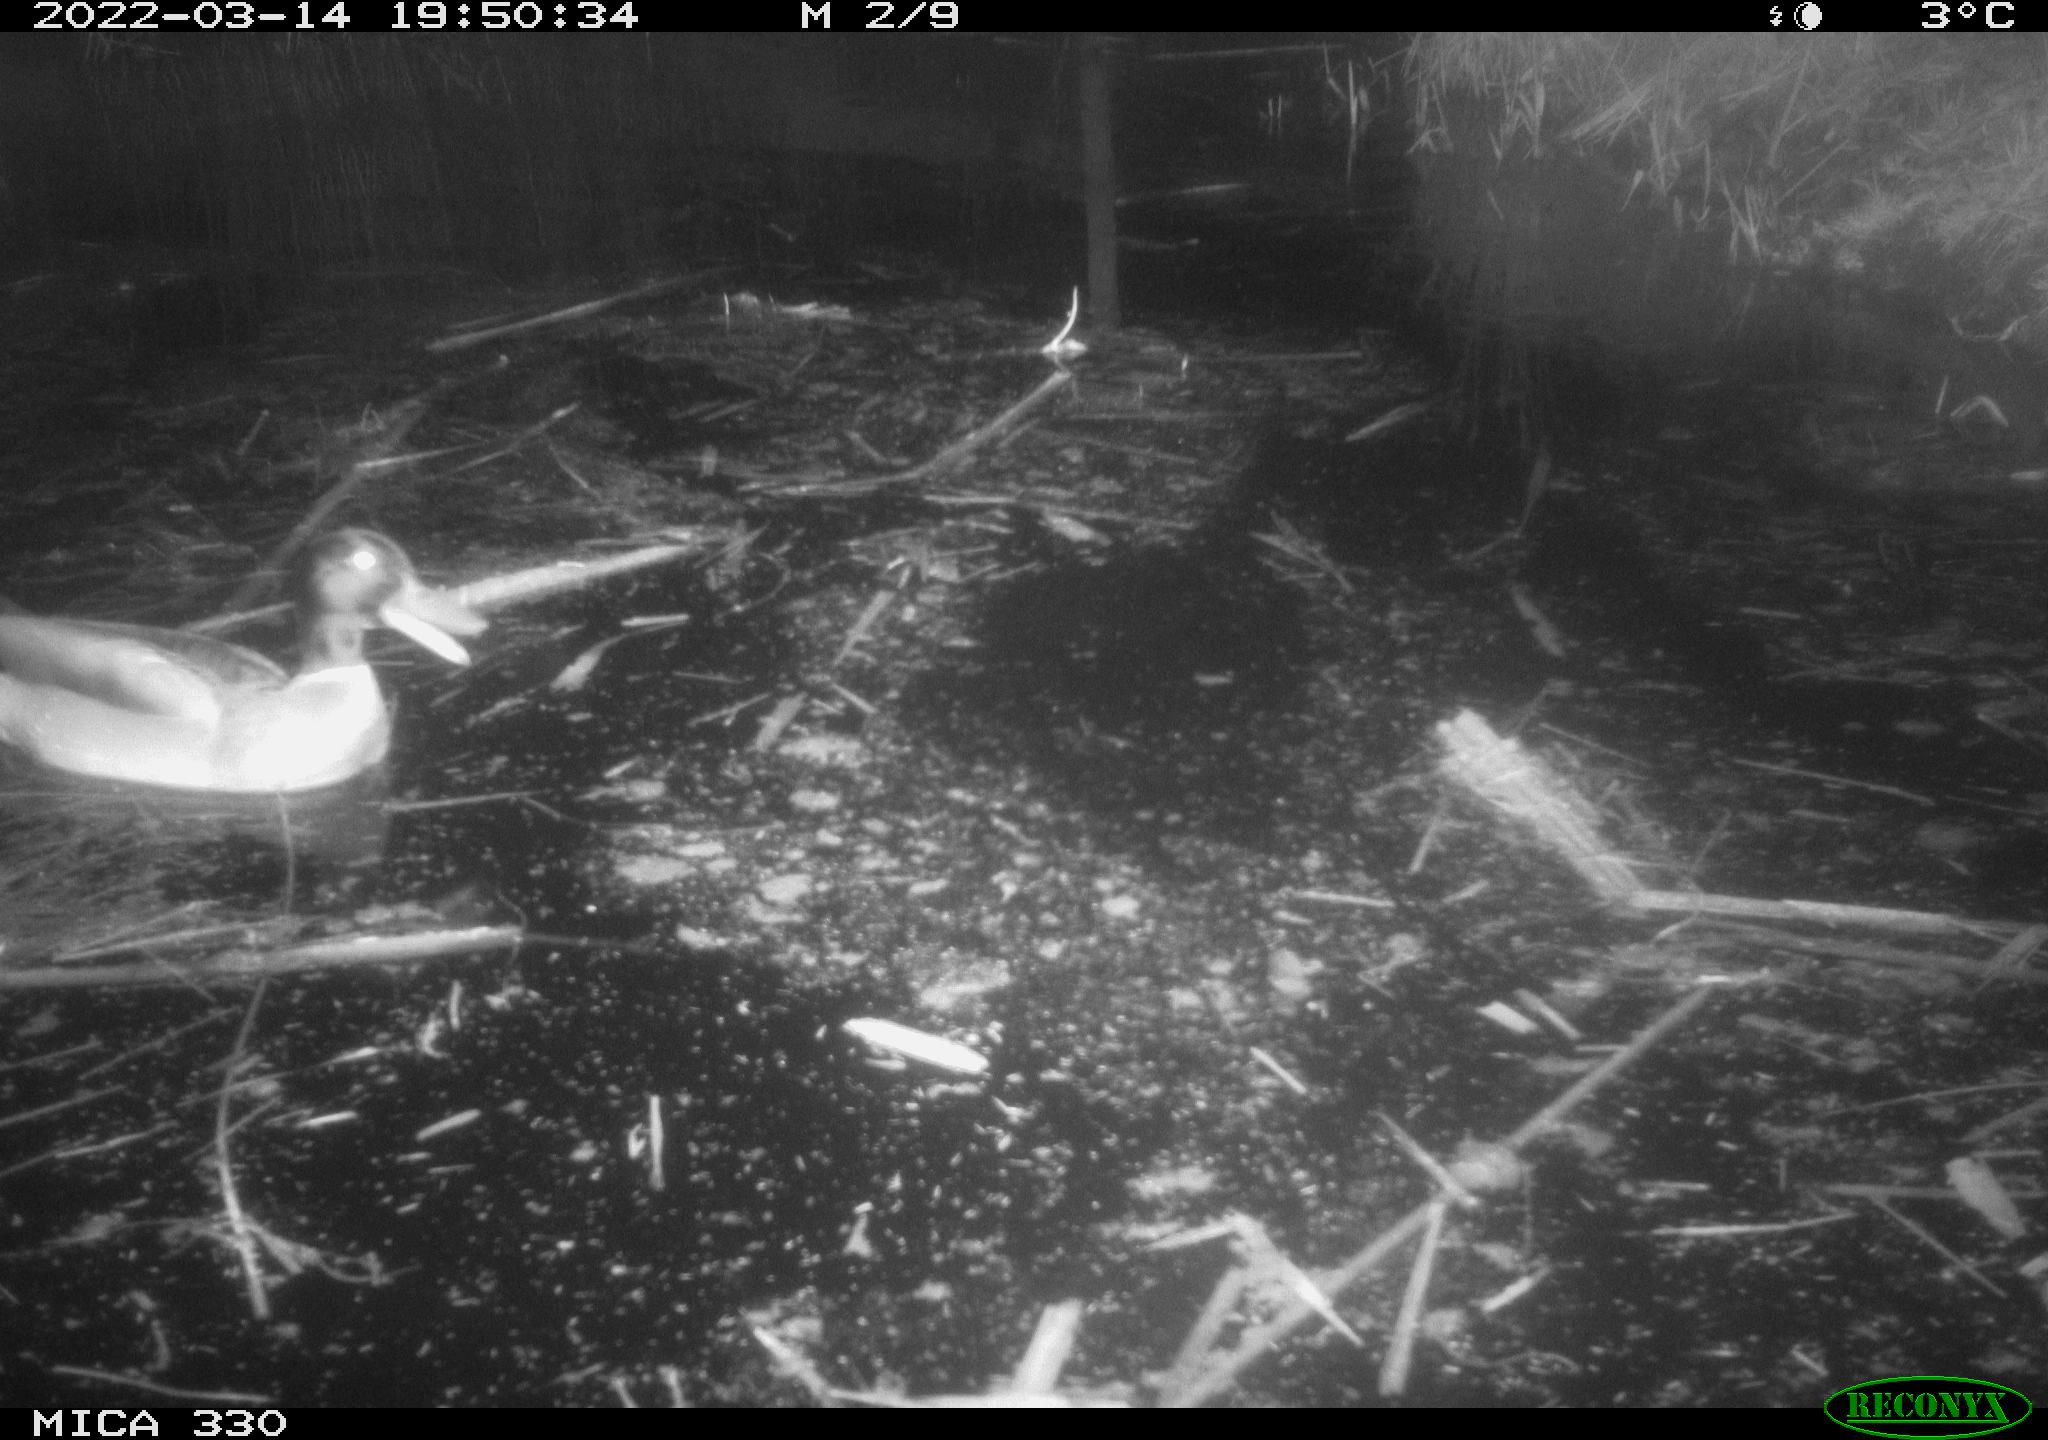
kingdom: Animalia
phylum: Chordata
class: Aves
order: Anseriformes
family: Anatidae
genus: Anas
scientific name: Anas platyrhynchos
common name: Mallard
